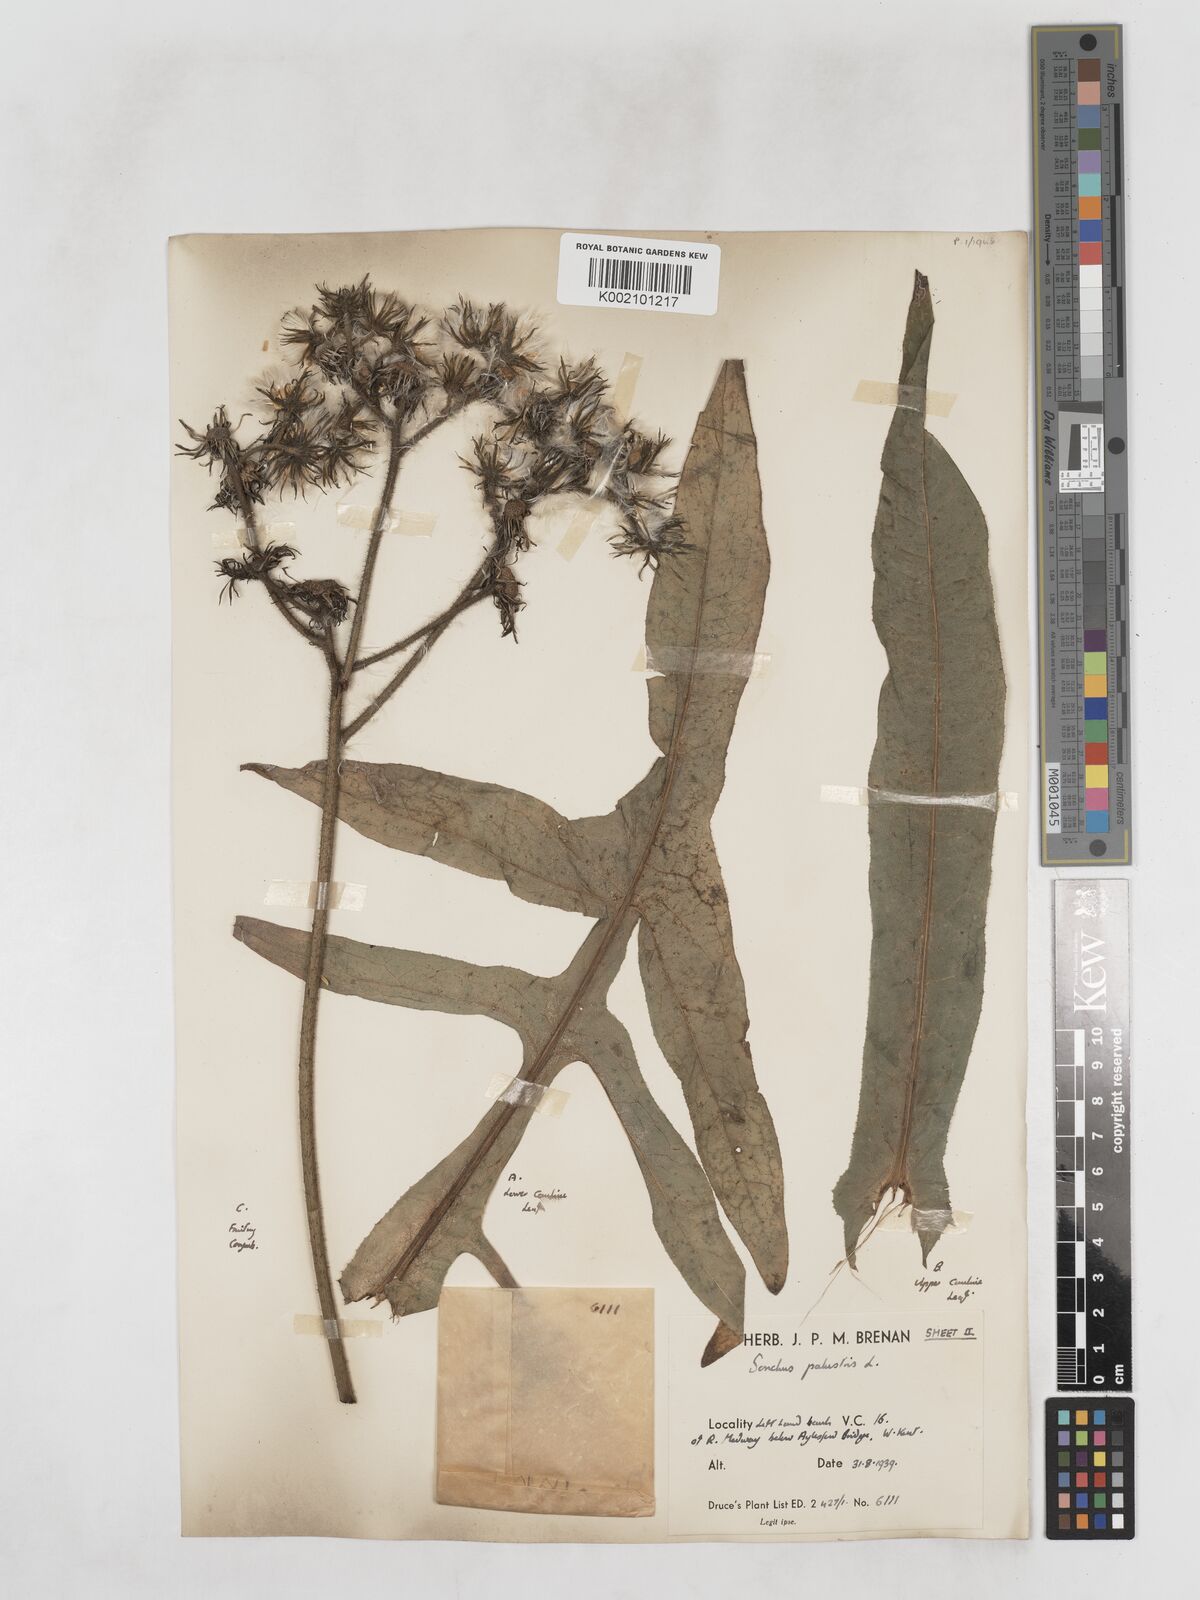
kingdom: Plantae
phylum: Tracheophyta
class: Magnoliopsida
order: Asterales
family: Asteraceae
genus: Sonchus
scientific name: Sonchus palustris
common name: Marsh sow-thistle
